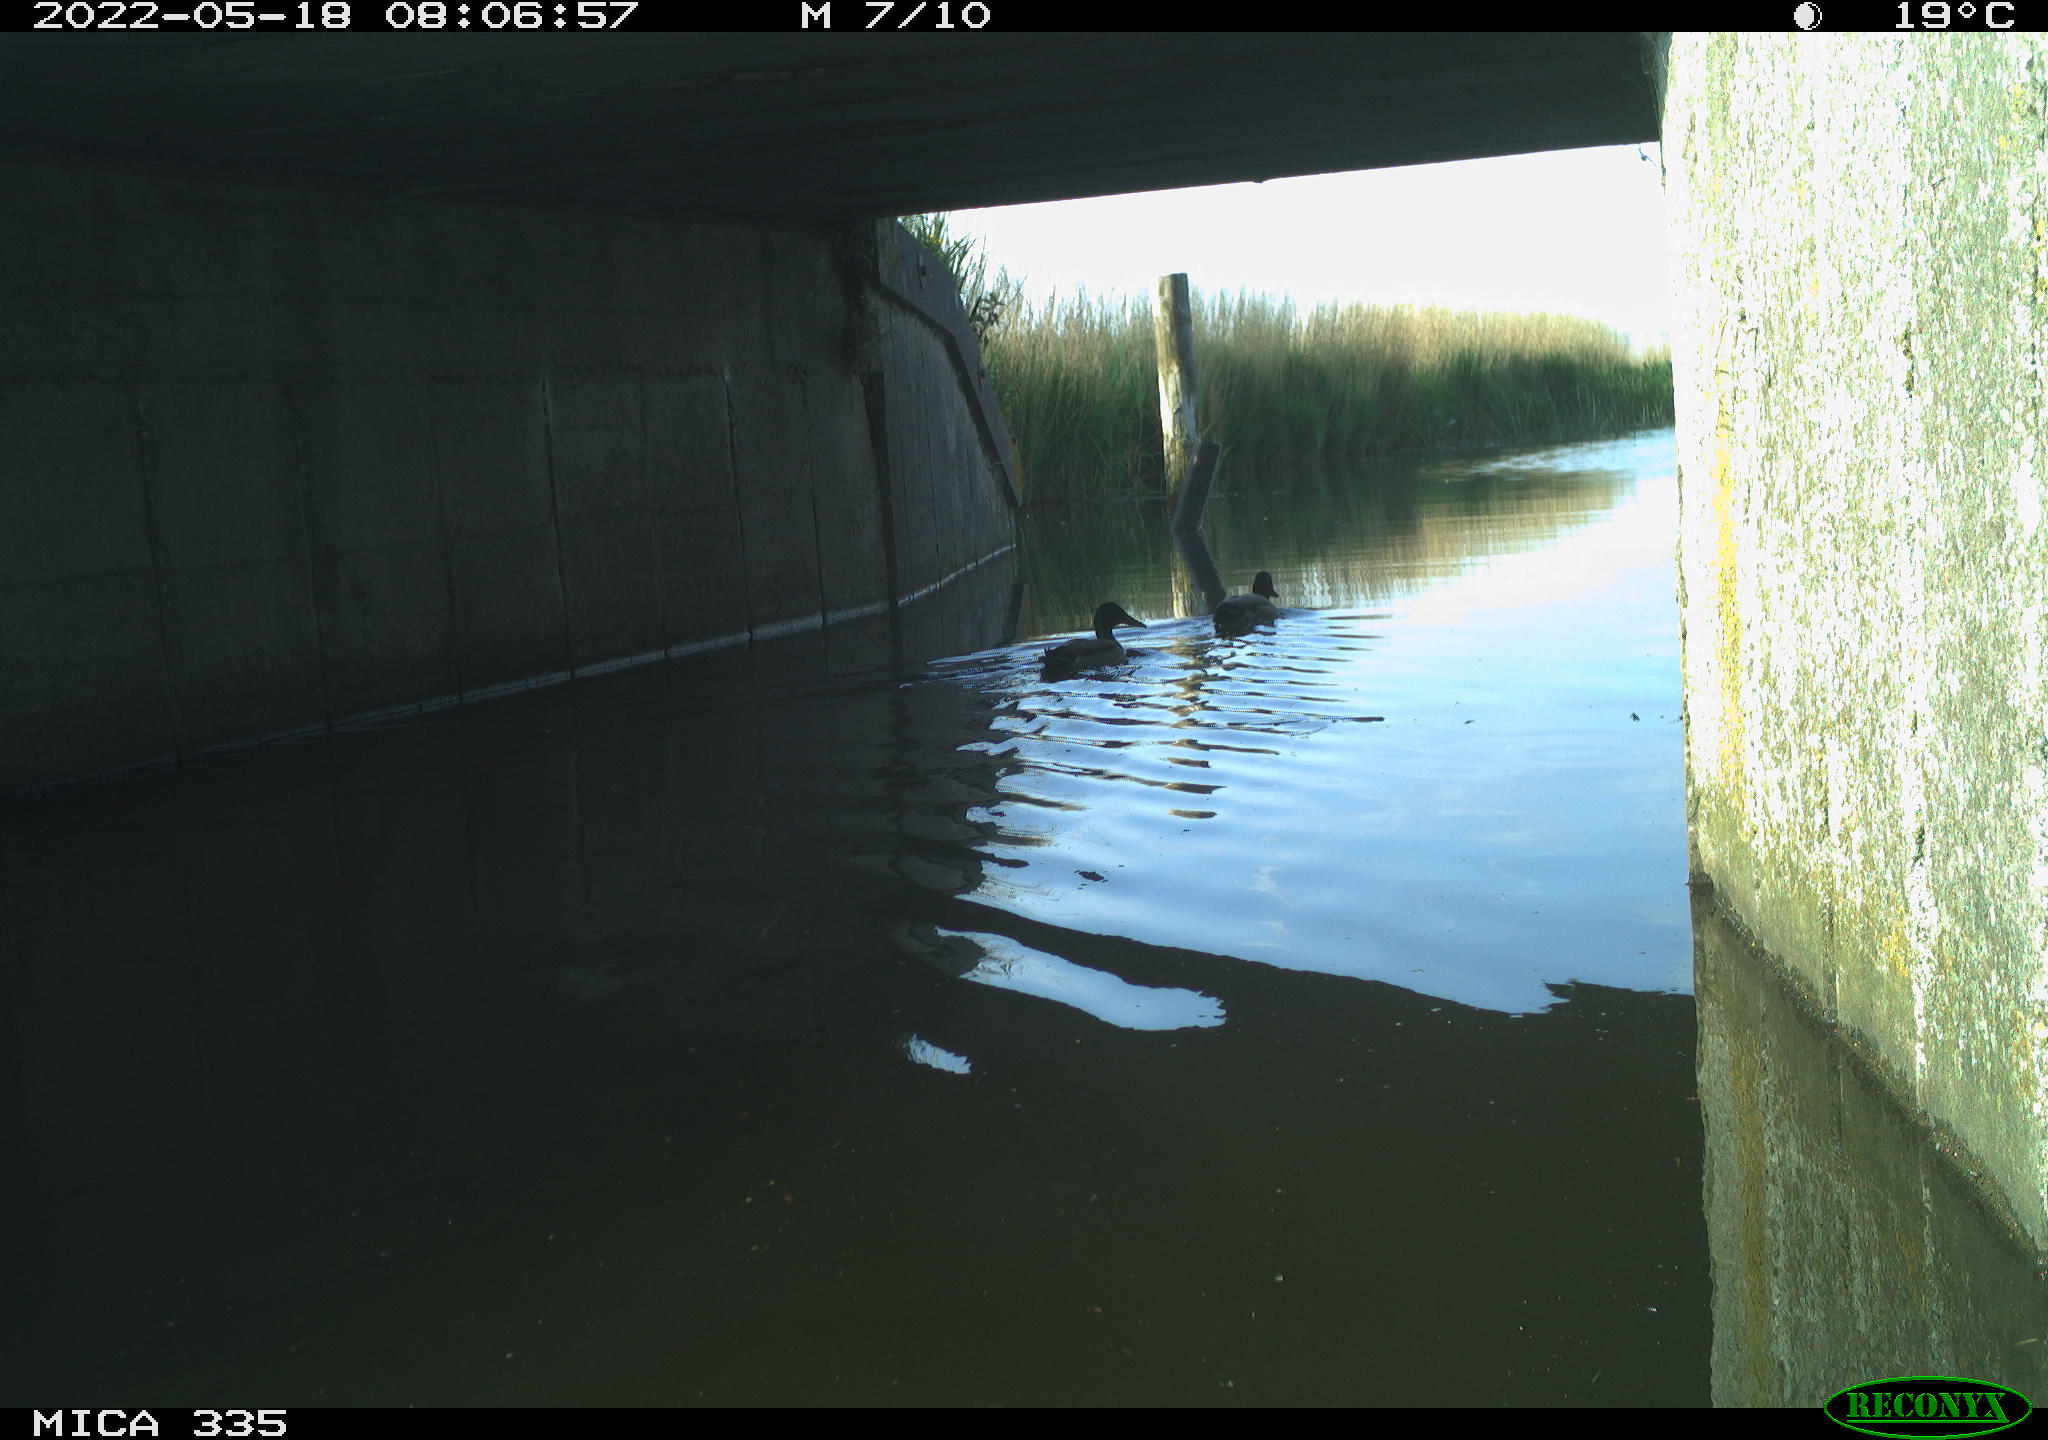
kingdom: Animalia
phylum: Chordata
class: Aves
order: Anseriformes
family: Anatidae
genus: Anas
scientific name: Anas platyrhynchos
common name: Mallard
